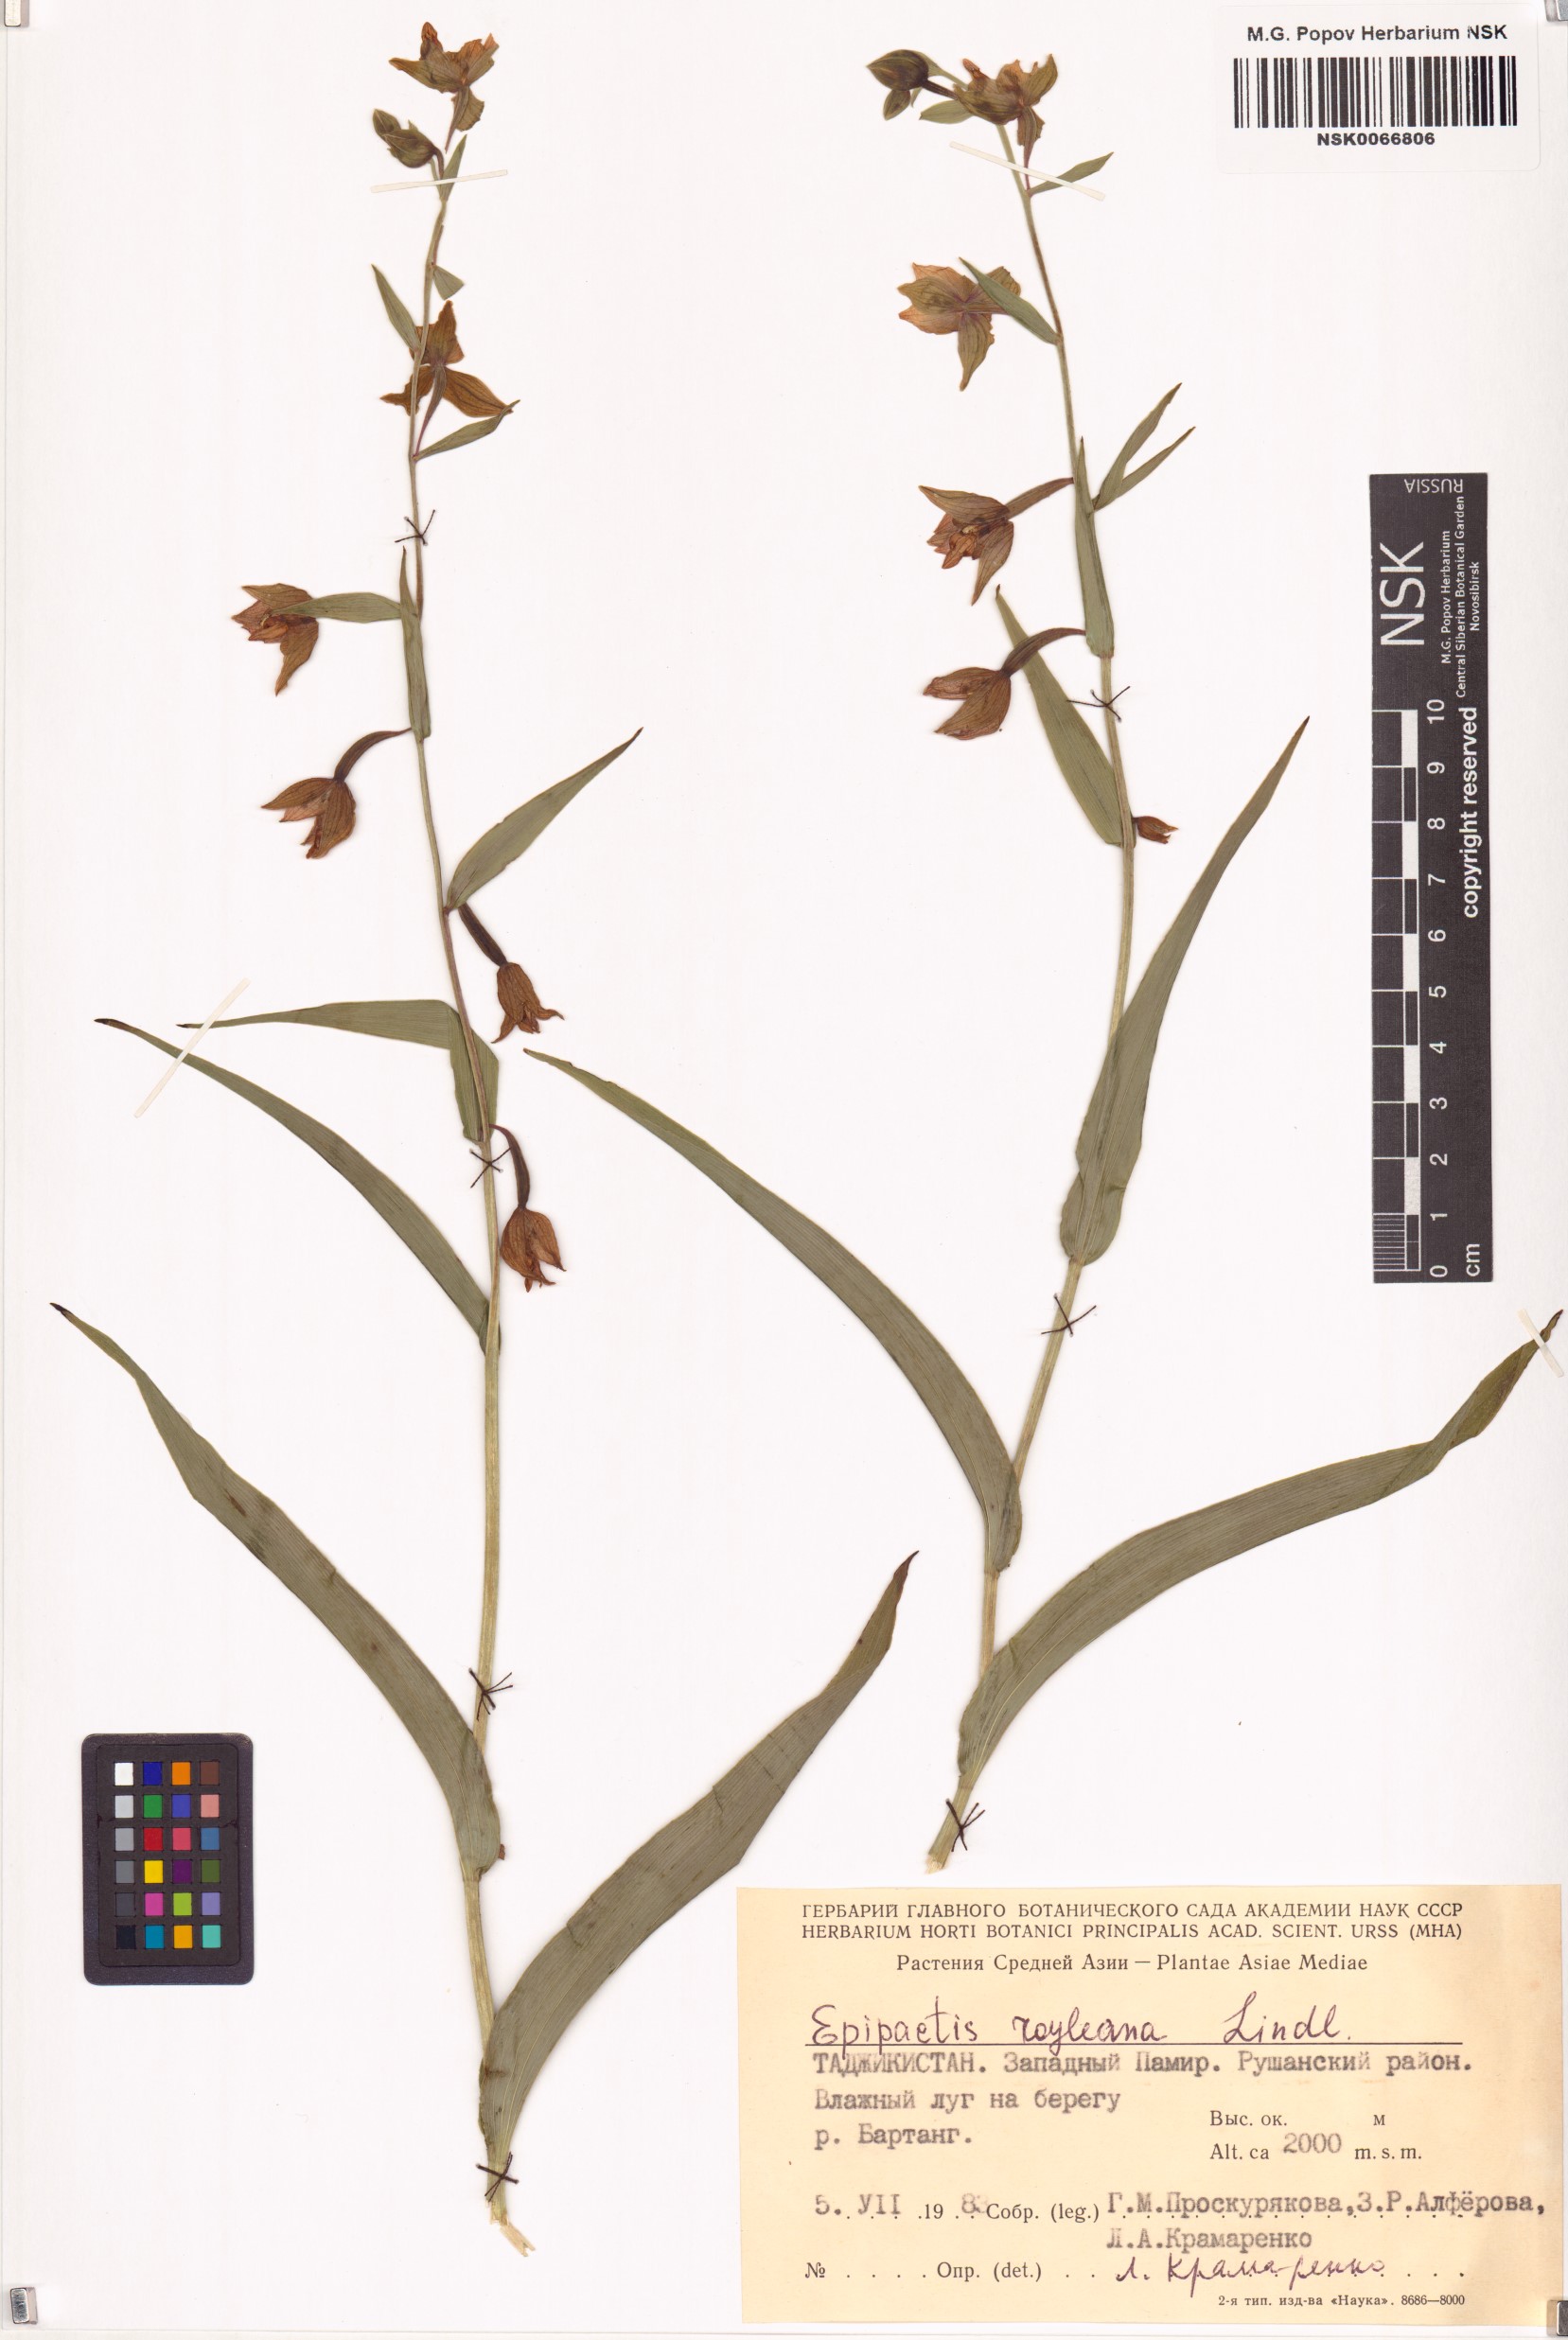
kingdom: Plantae
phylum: Tracheophyta
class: Liliopsida
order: Asparagales
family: Orchidaceae
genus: Epipactis
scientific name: Epipactis royleana
